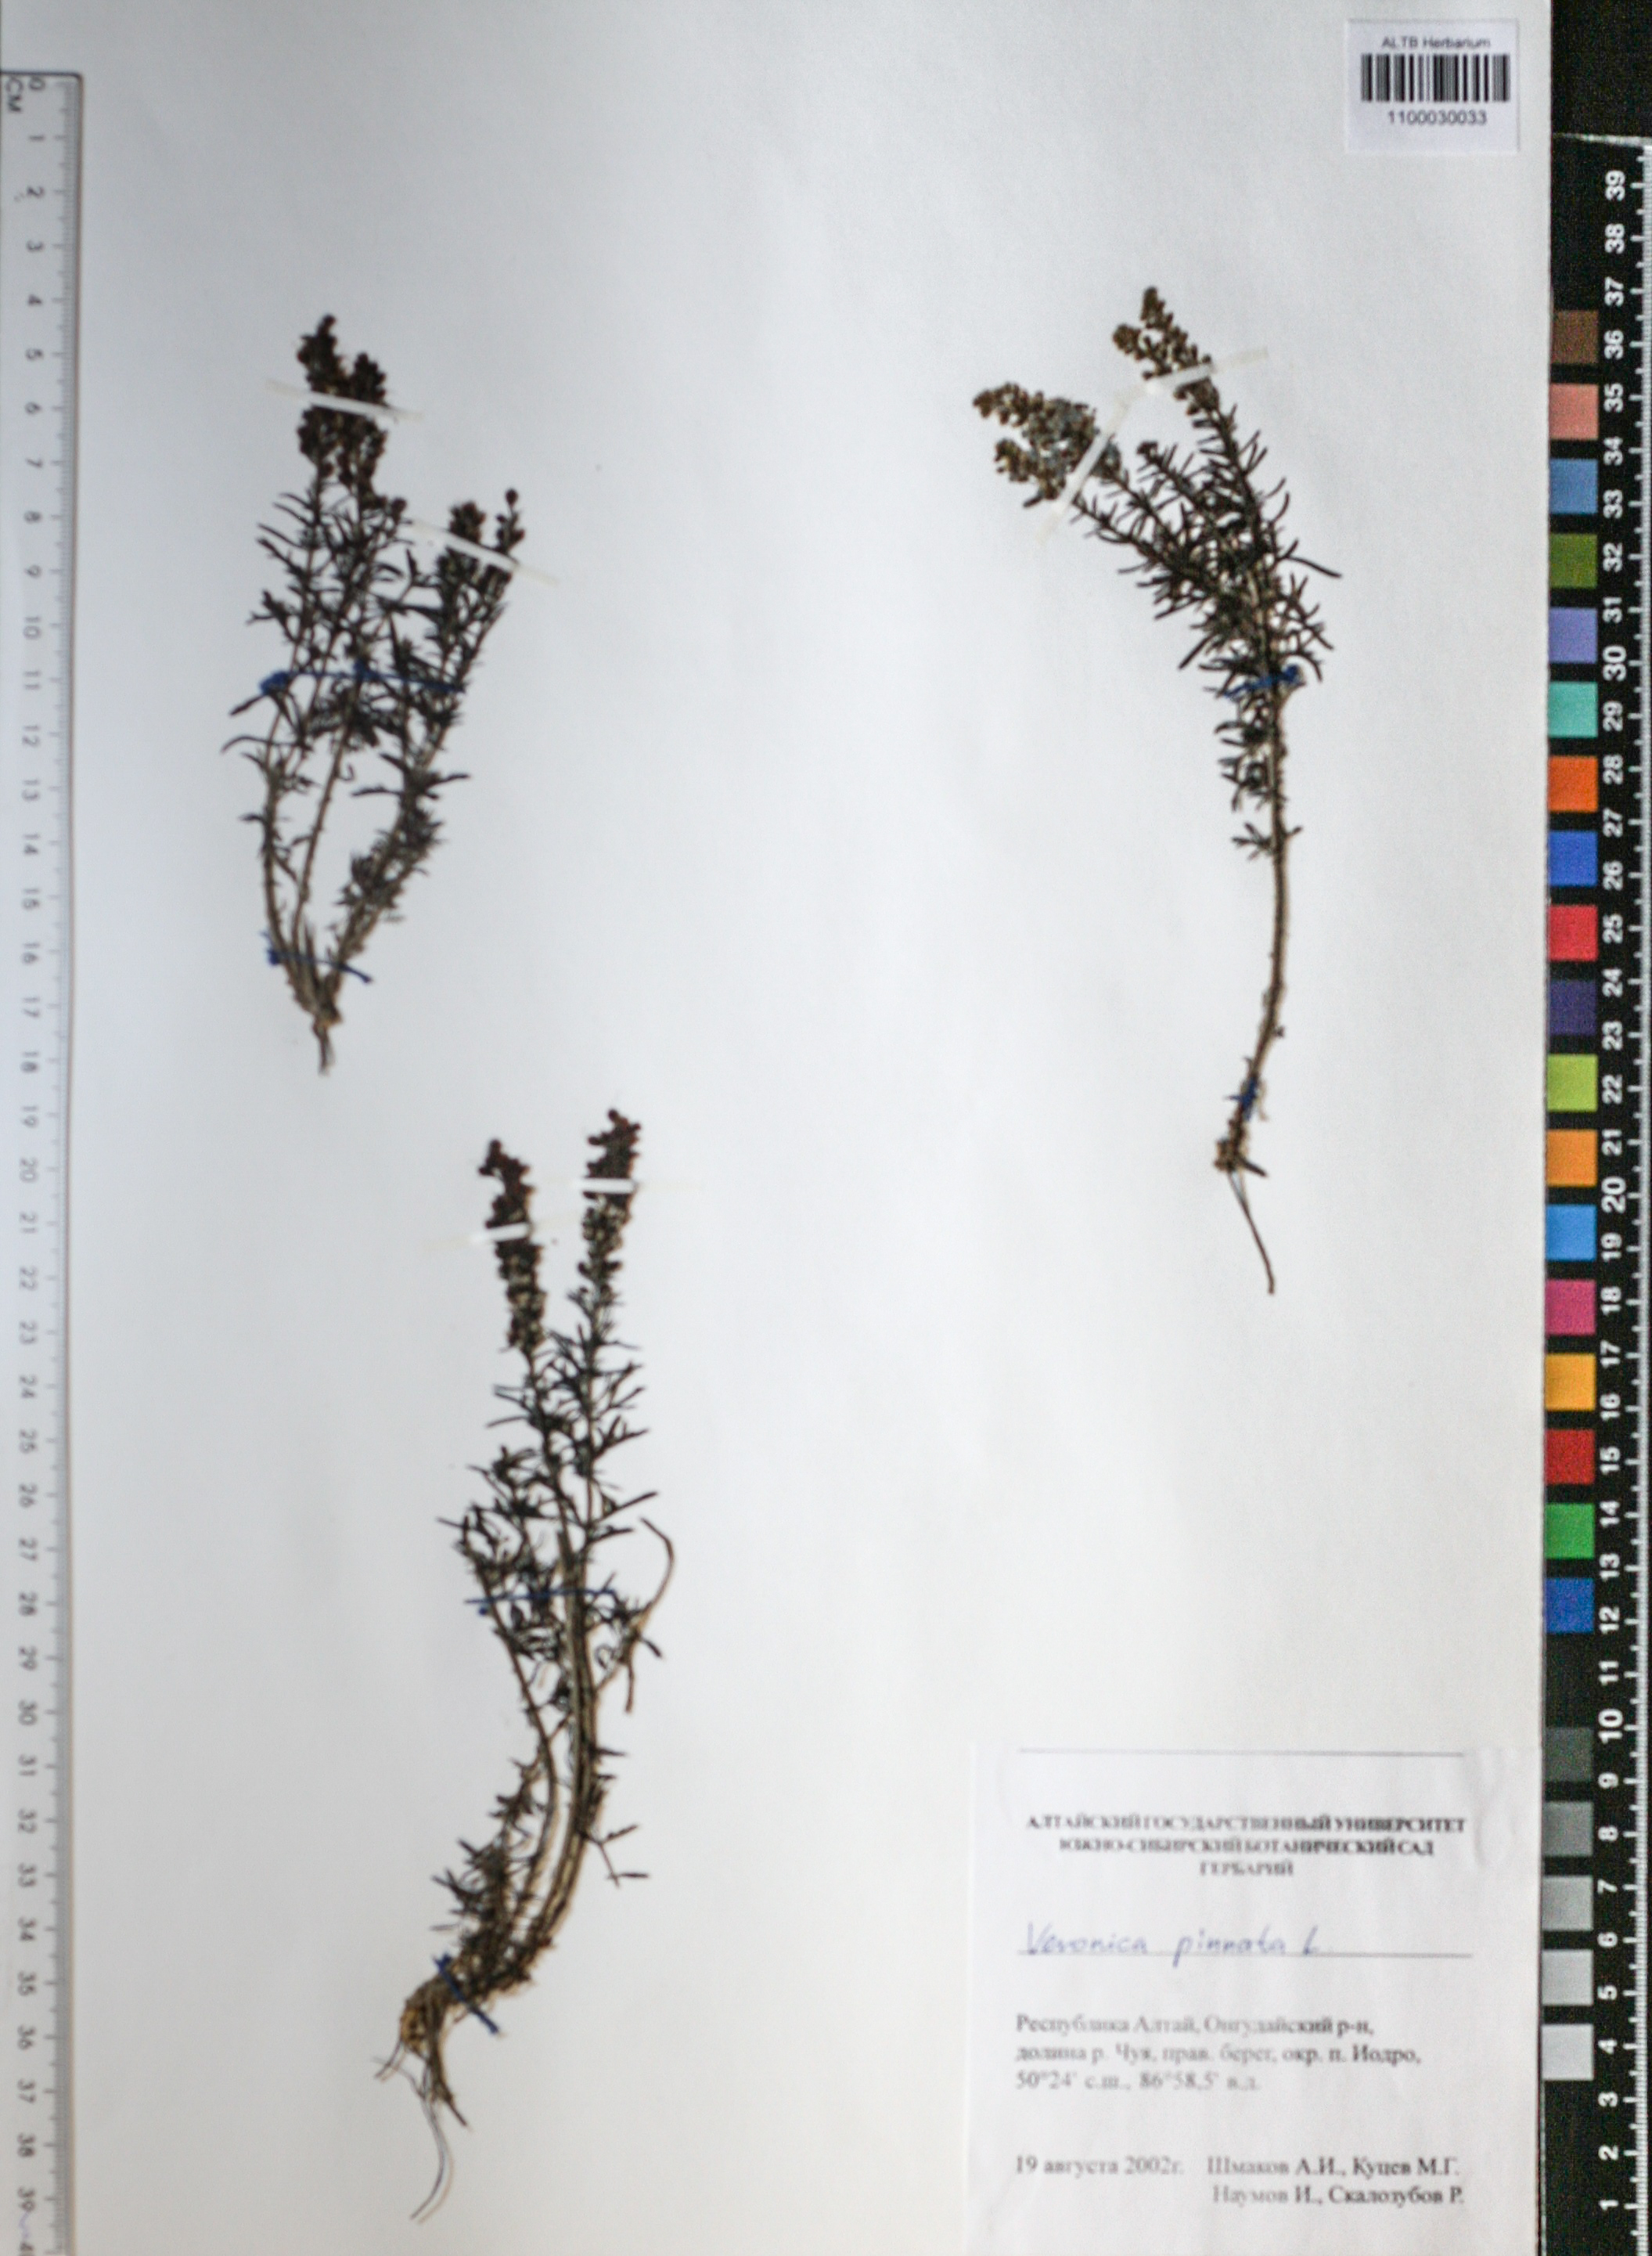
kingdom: Plantae
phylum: Tracheophyta
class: Magnoliopsida
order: Lamiales
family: Plantaginaceae
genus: Veronica
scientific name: Veronica pinnata
